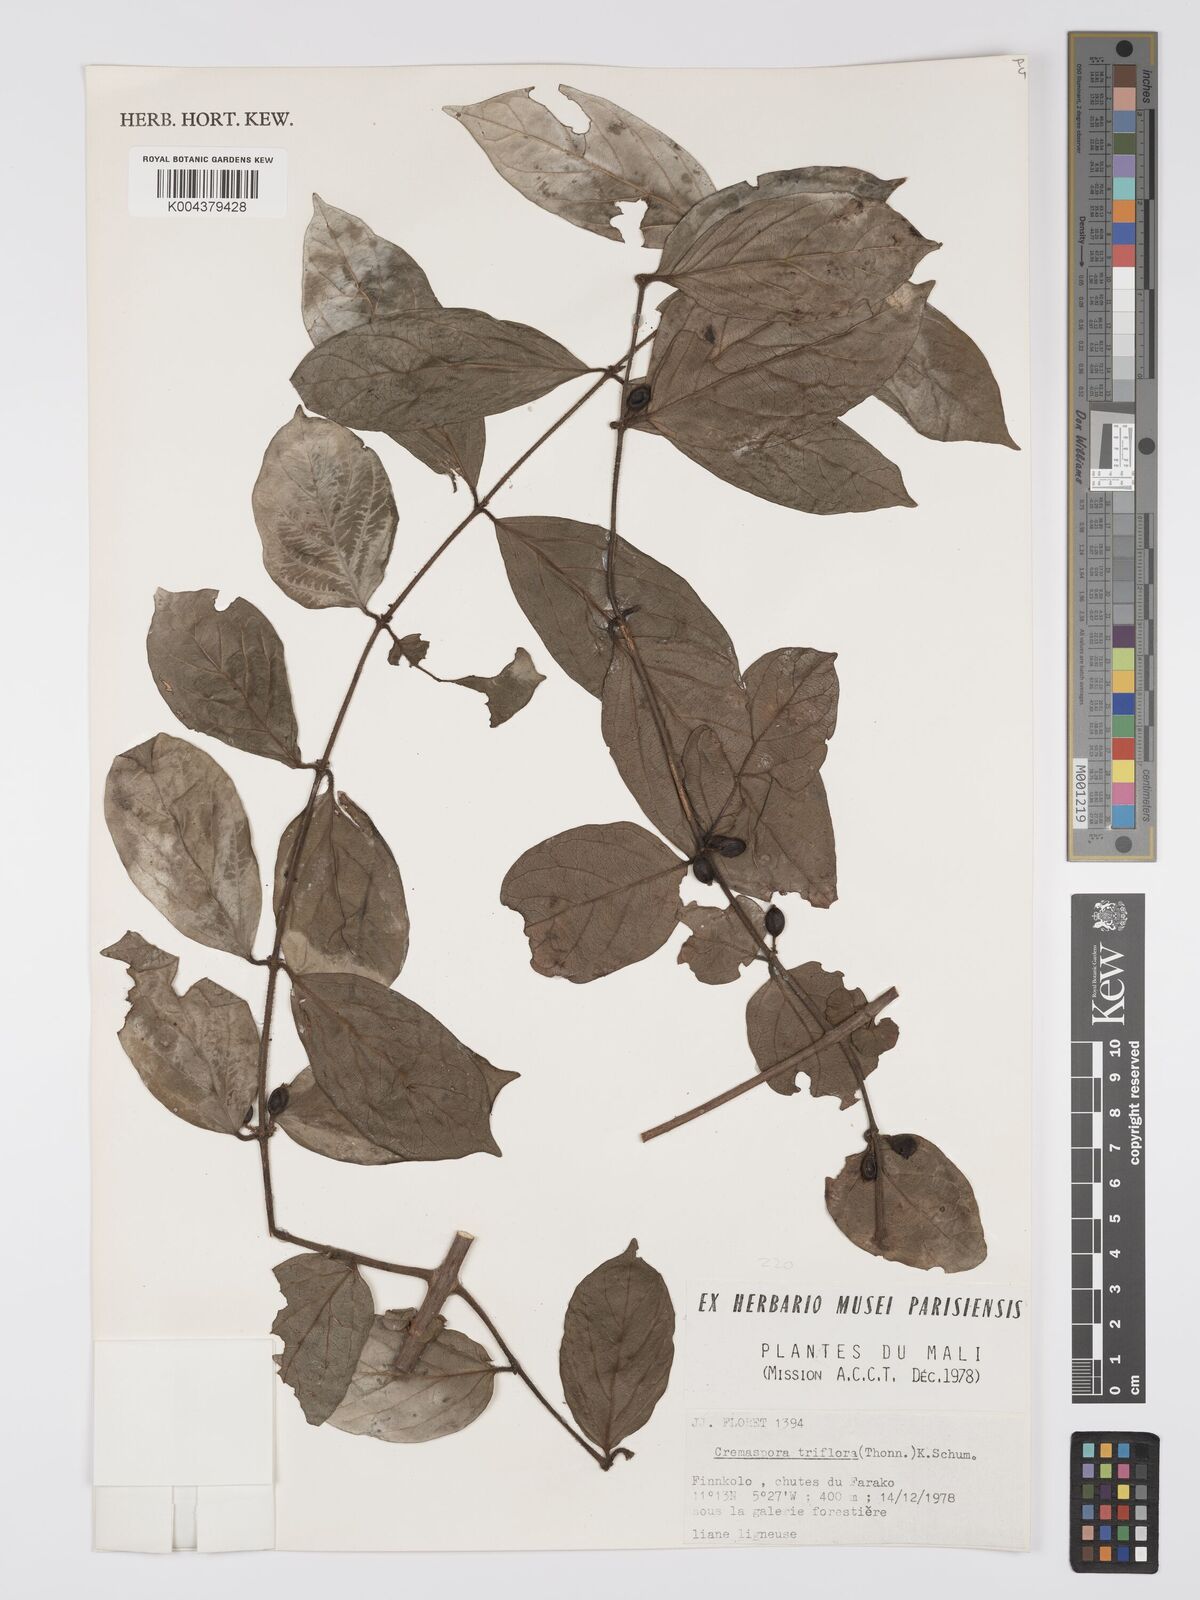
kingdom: Plantae
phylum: Tracheophyta
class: Magnoliopsida
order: Gentianales
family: Rubiaceae
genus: Cremaspora
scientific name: Cremaspora triflora
